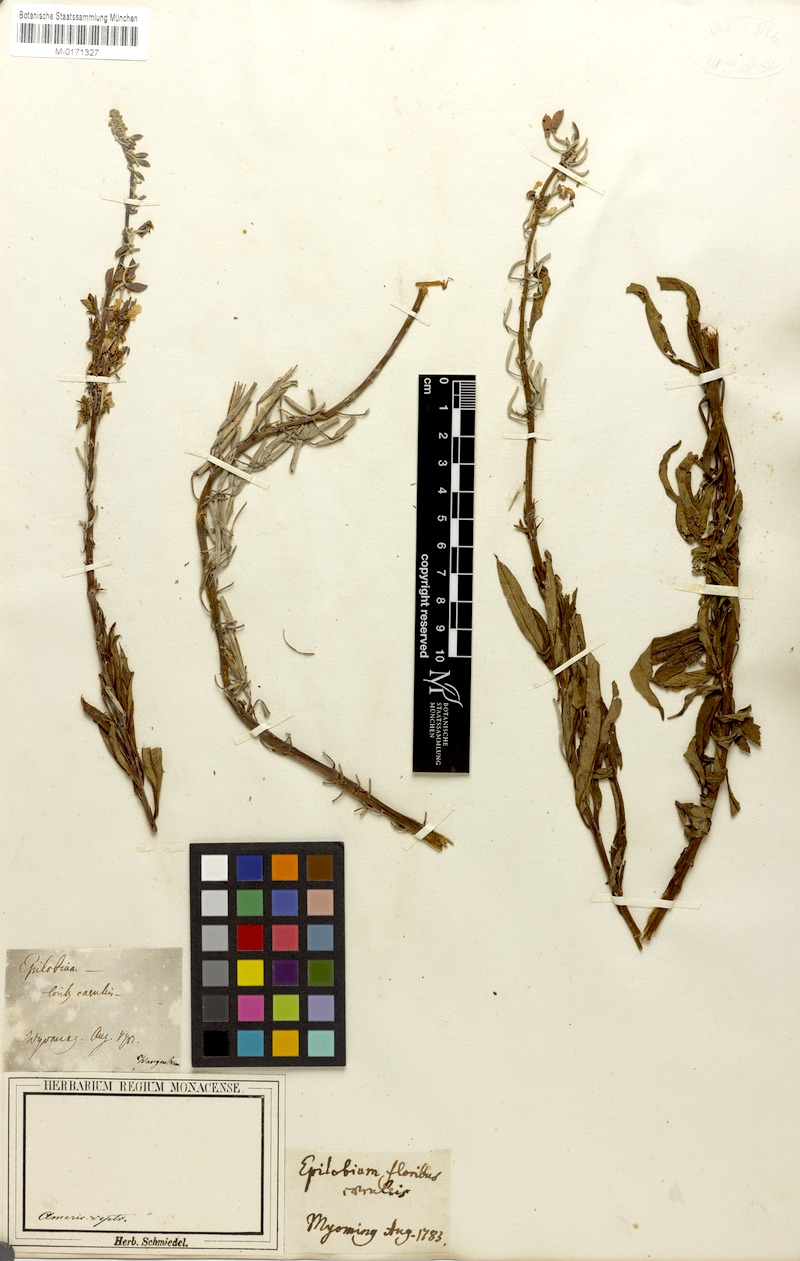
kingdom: Plantae
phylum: Tracheophyta
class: Magnoliopsida
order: Myrtales
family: Onagraceae
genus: Epilobium
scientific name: Epilobium
